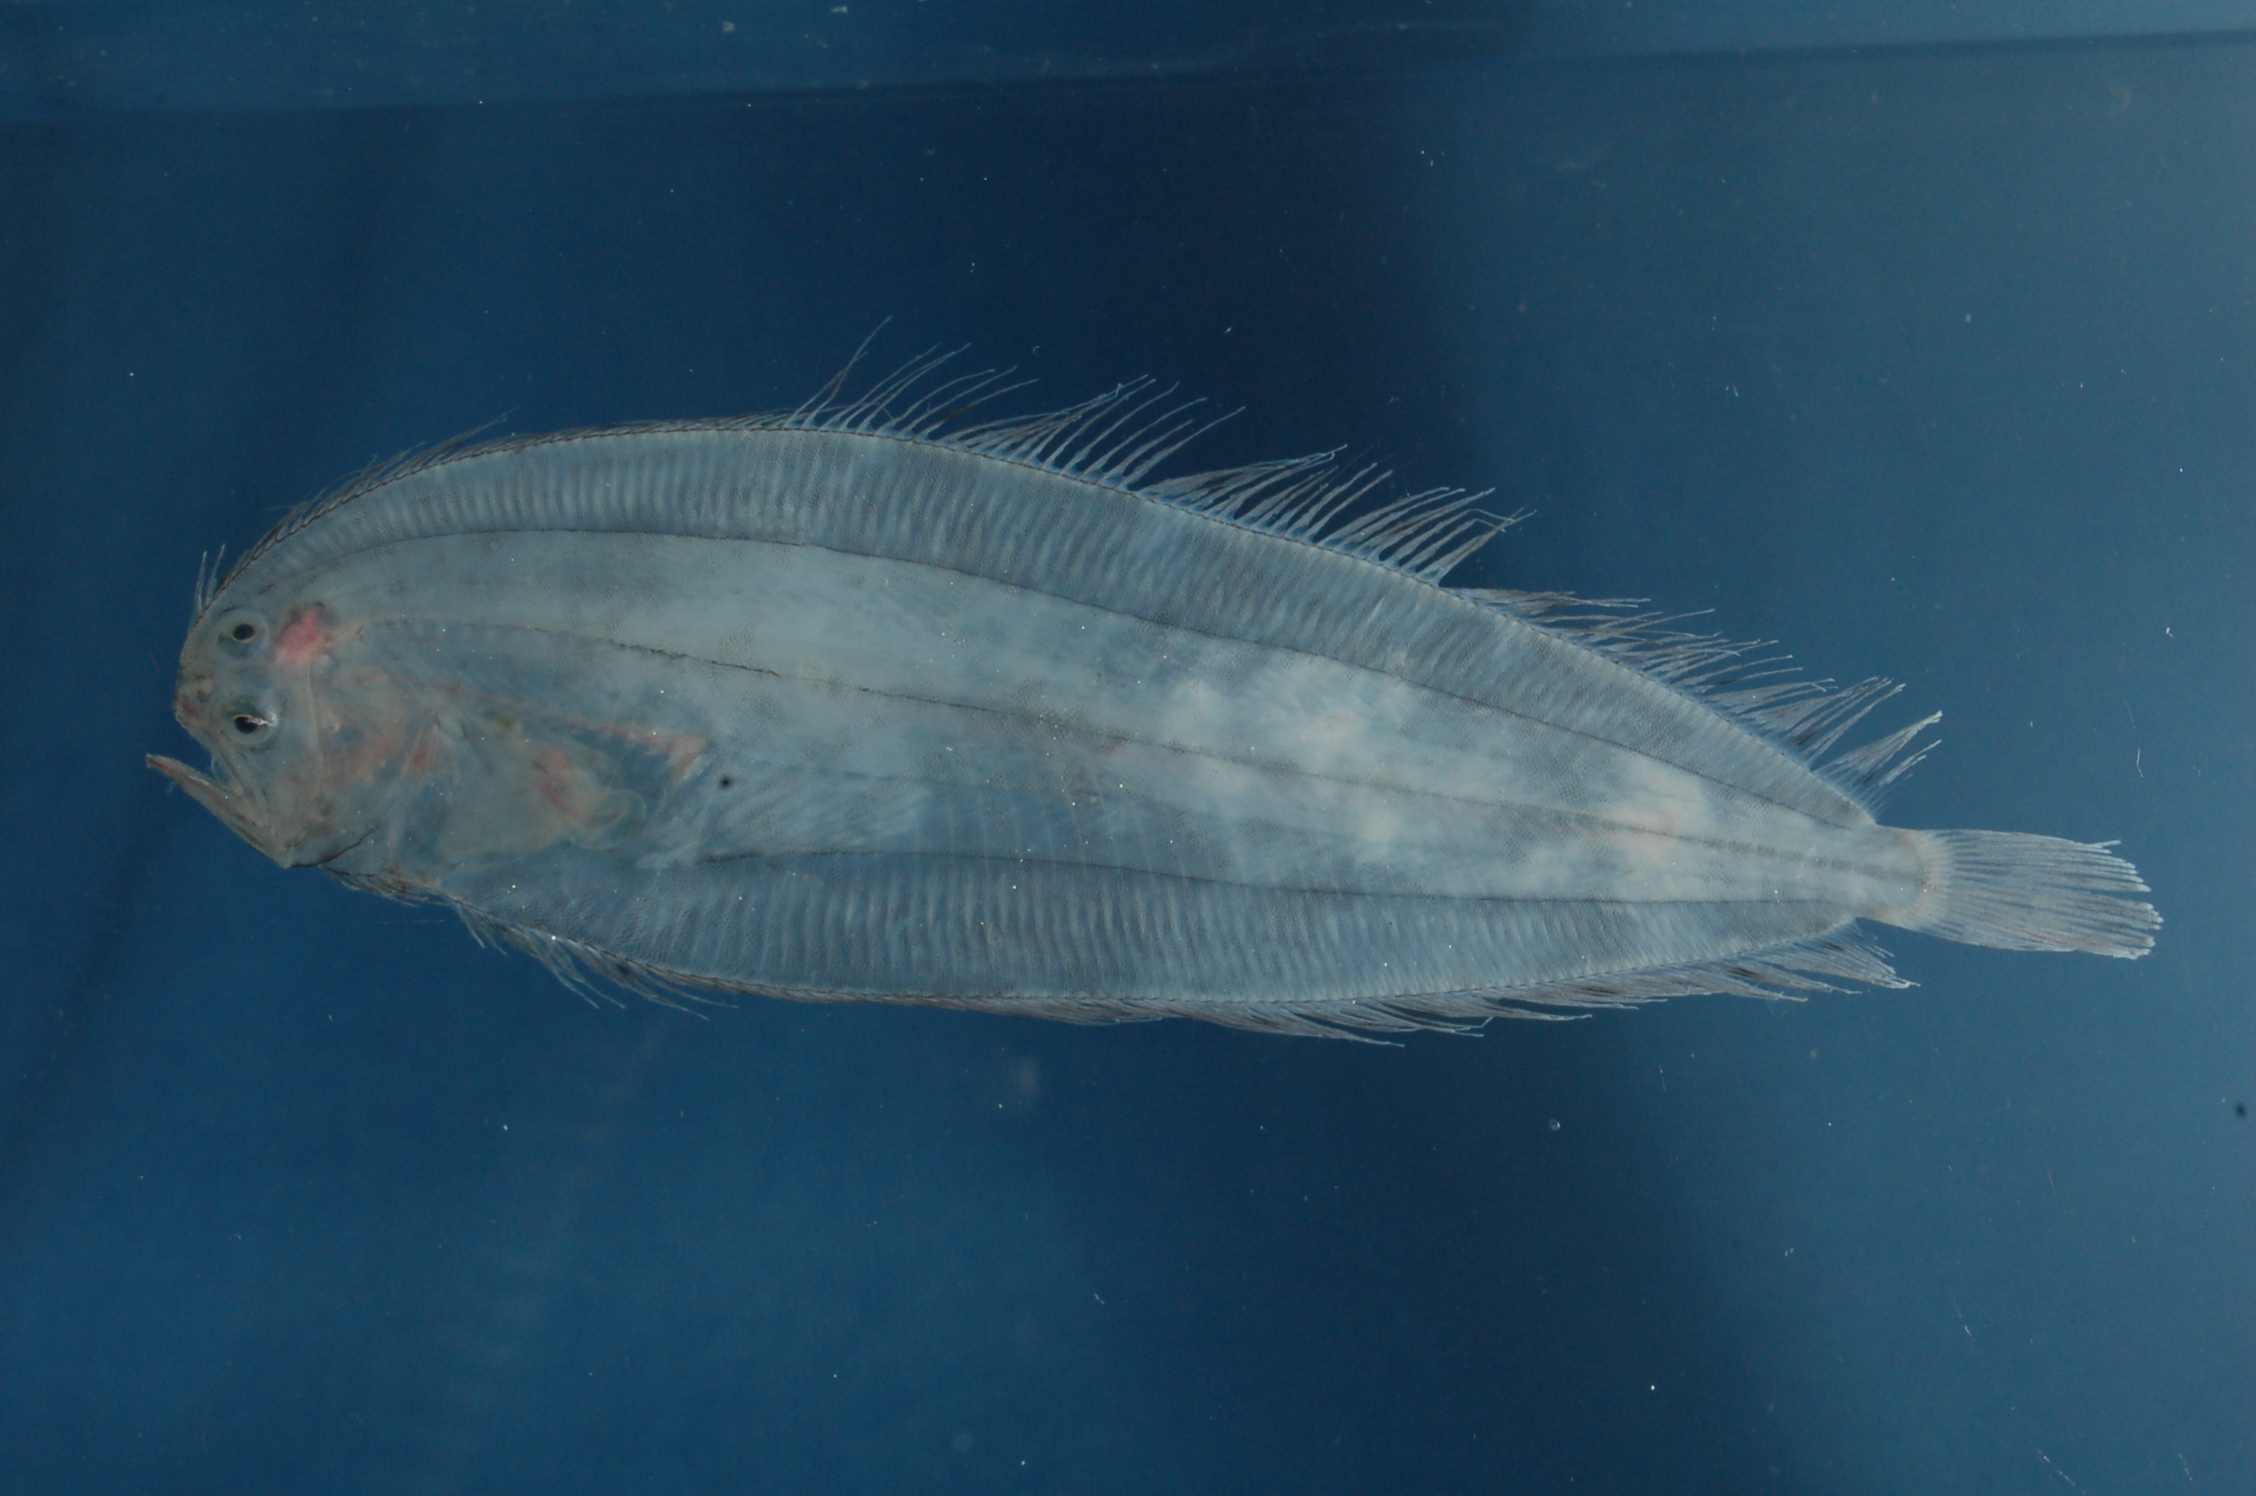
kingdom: Animalia
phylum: Chordata
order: Pleuronectiformes
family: Bothidae
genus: Chascanopsetta
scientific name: Chascanopsetta lugubris
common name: Pelican flounder
